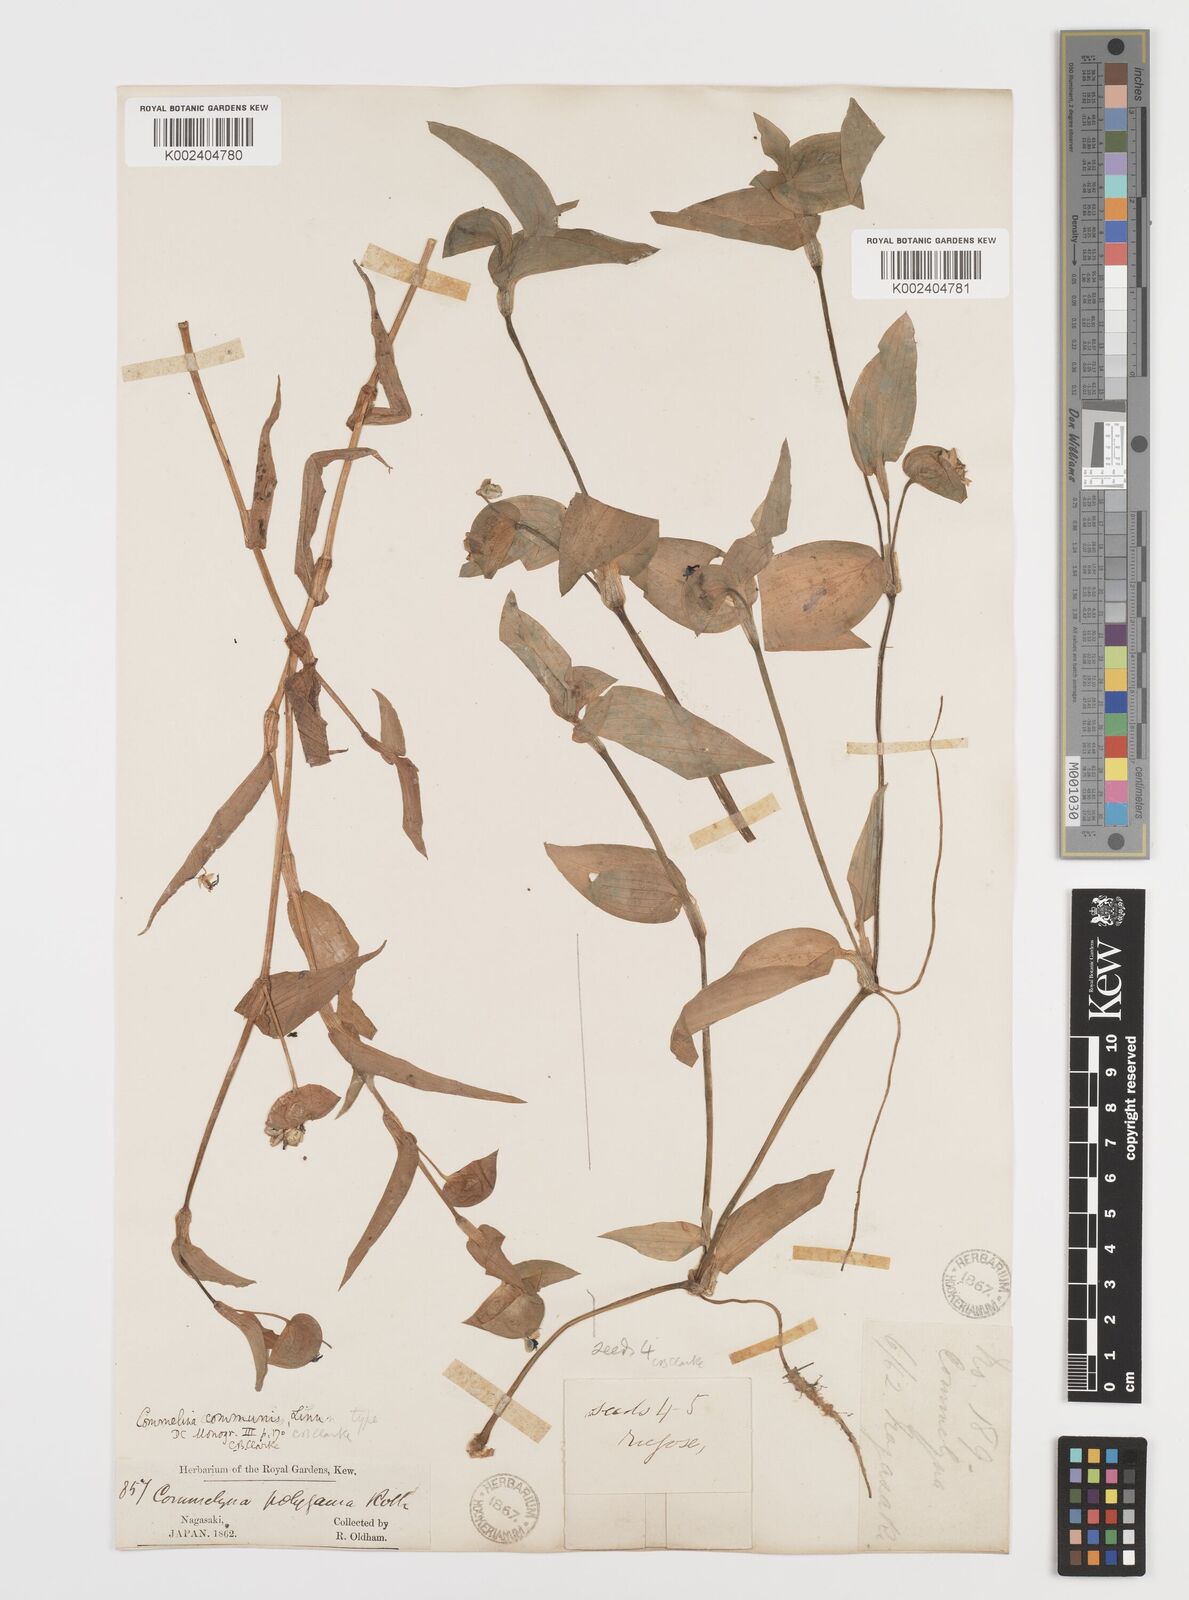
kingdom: Plantae
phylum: Tracheophyta
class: Liliopsida
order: Commelinales
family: Commelinaceae
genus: Commelina
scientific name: Commelina communis
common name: Asiatic dayflower
